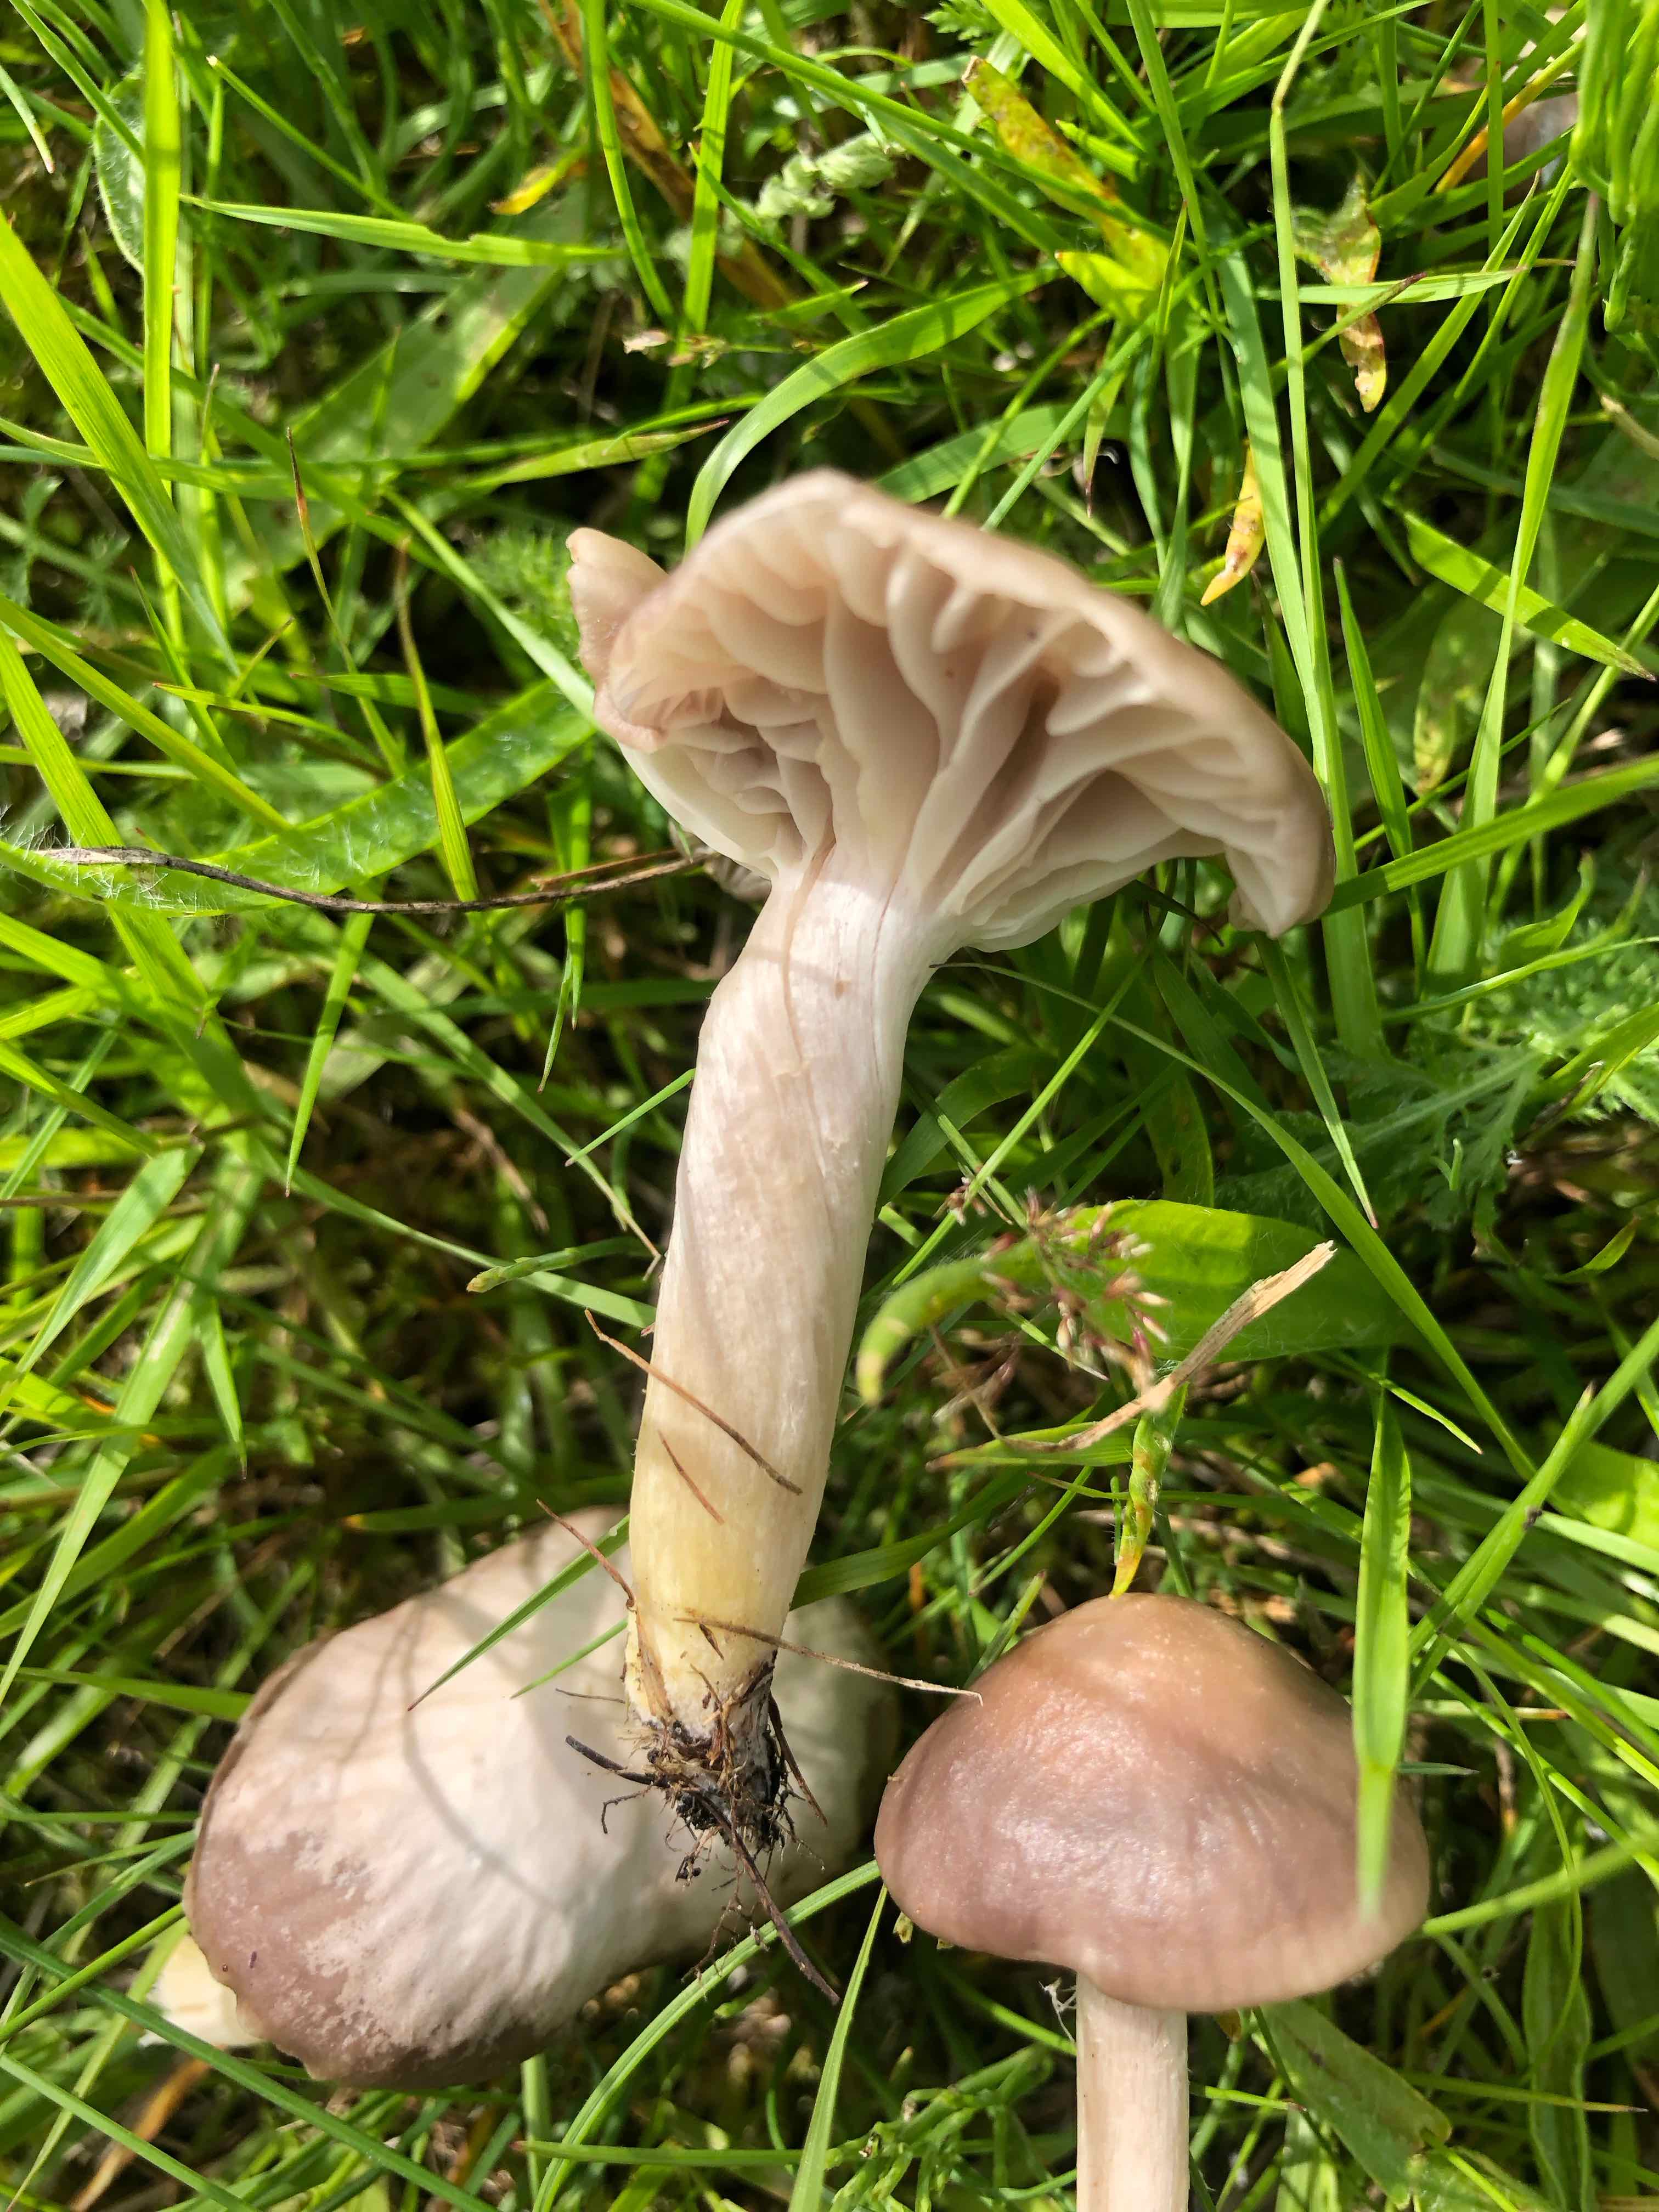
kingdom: Fungi
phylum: Basidiomycota
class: Agaricomycetes
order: Agaricales
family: Hygrophoraceae
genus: Cuphophyllus
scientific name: Cuphophyllus flavipes
